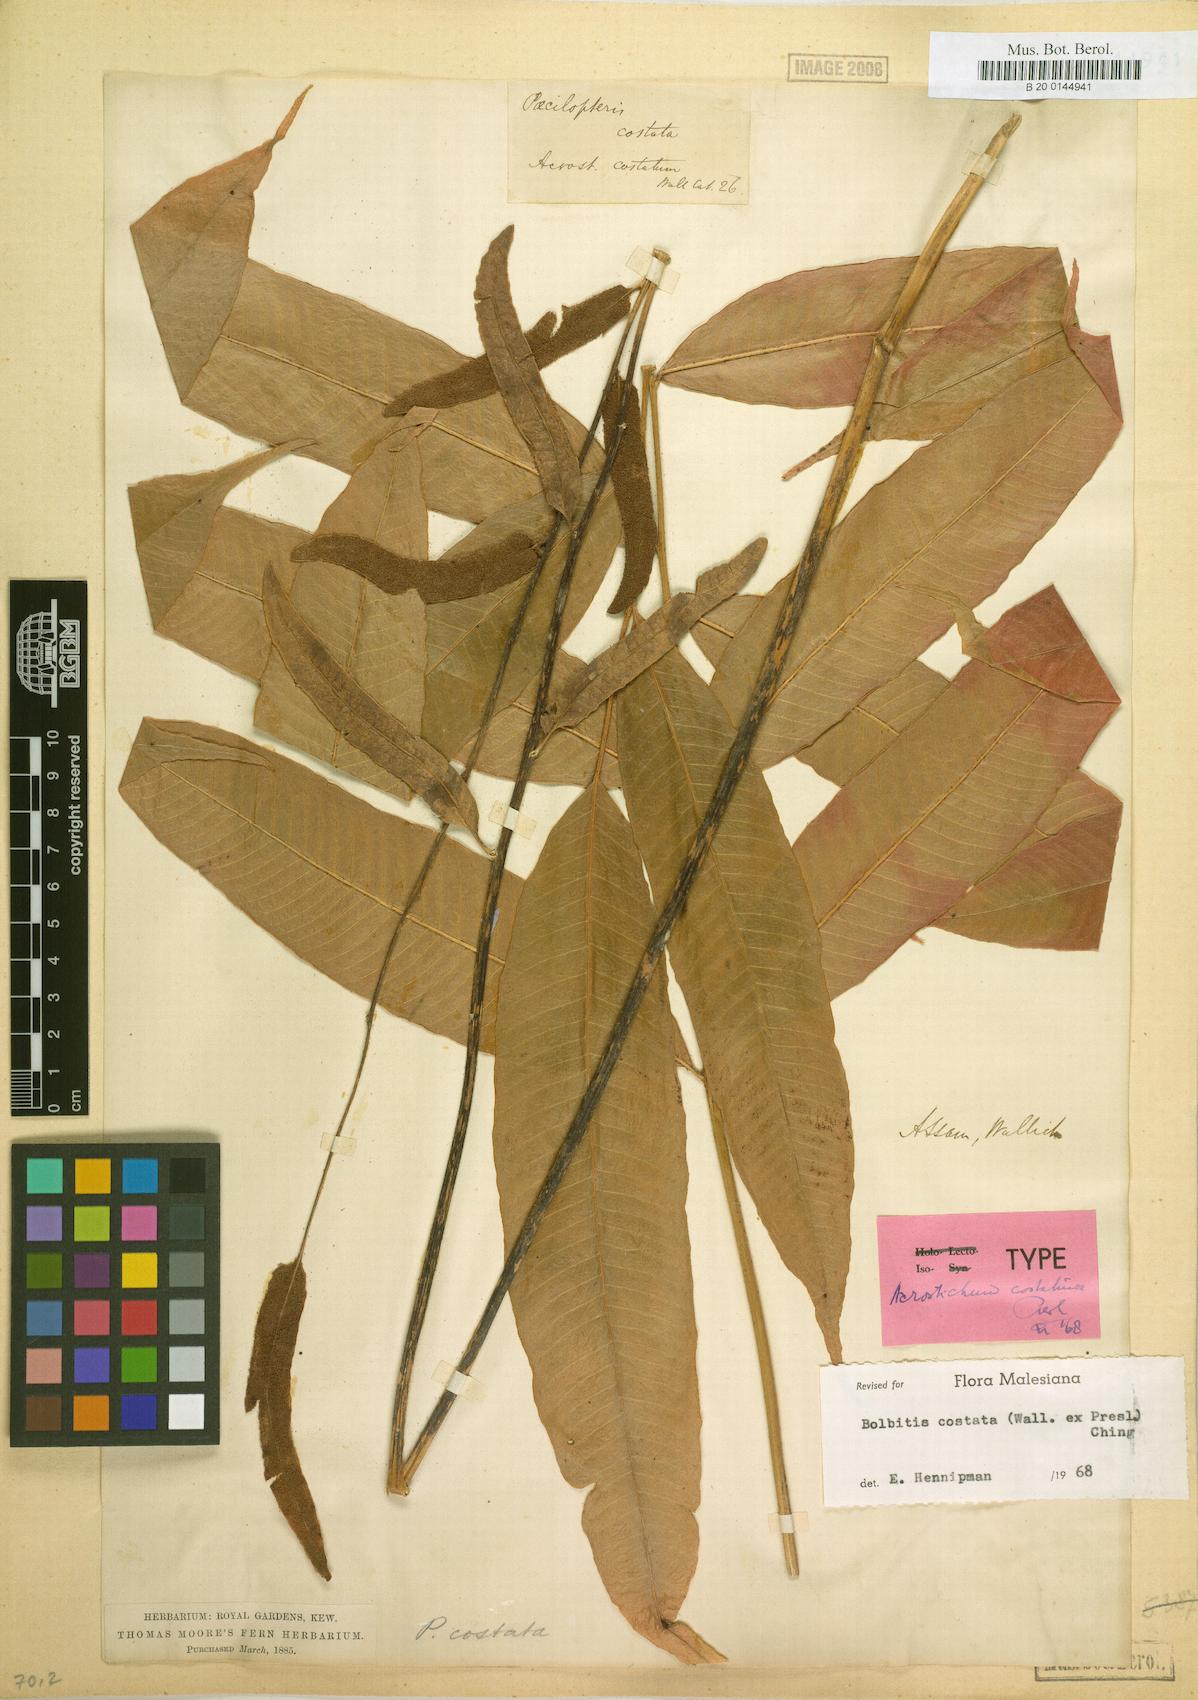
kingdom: Plantae
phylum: Tracheophyta
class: Polypodiopsida
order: Polypodiales
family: Dryopteridaceae
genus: Bolbitis
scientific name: Bolbitis costata
